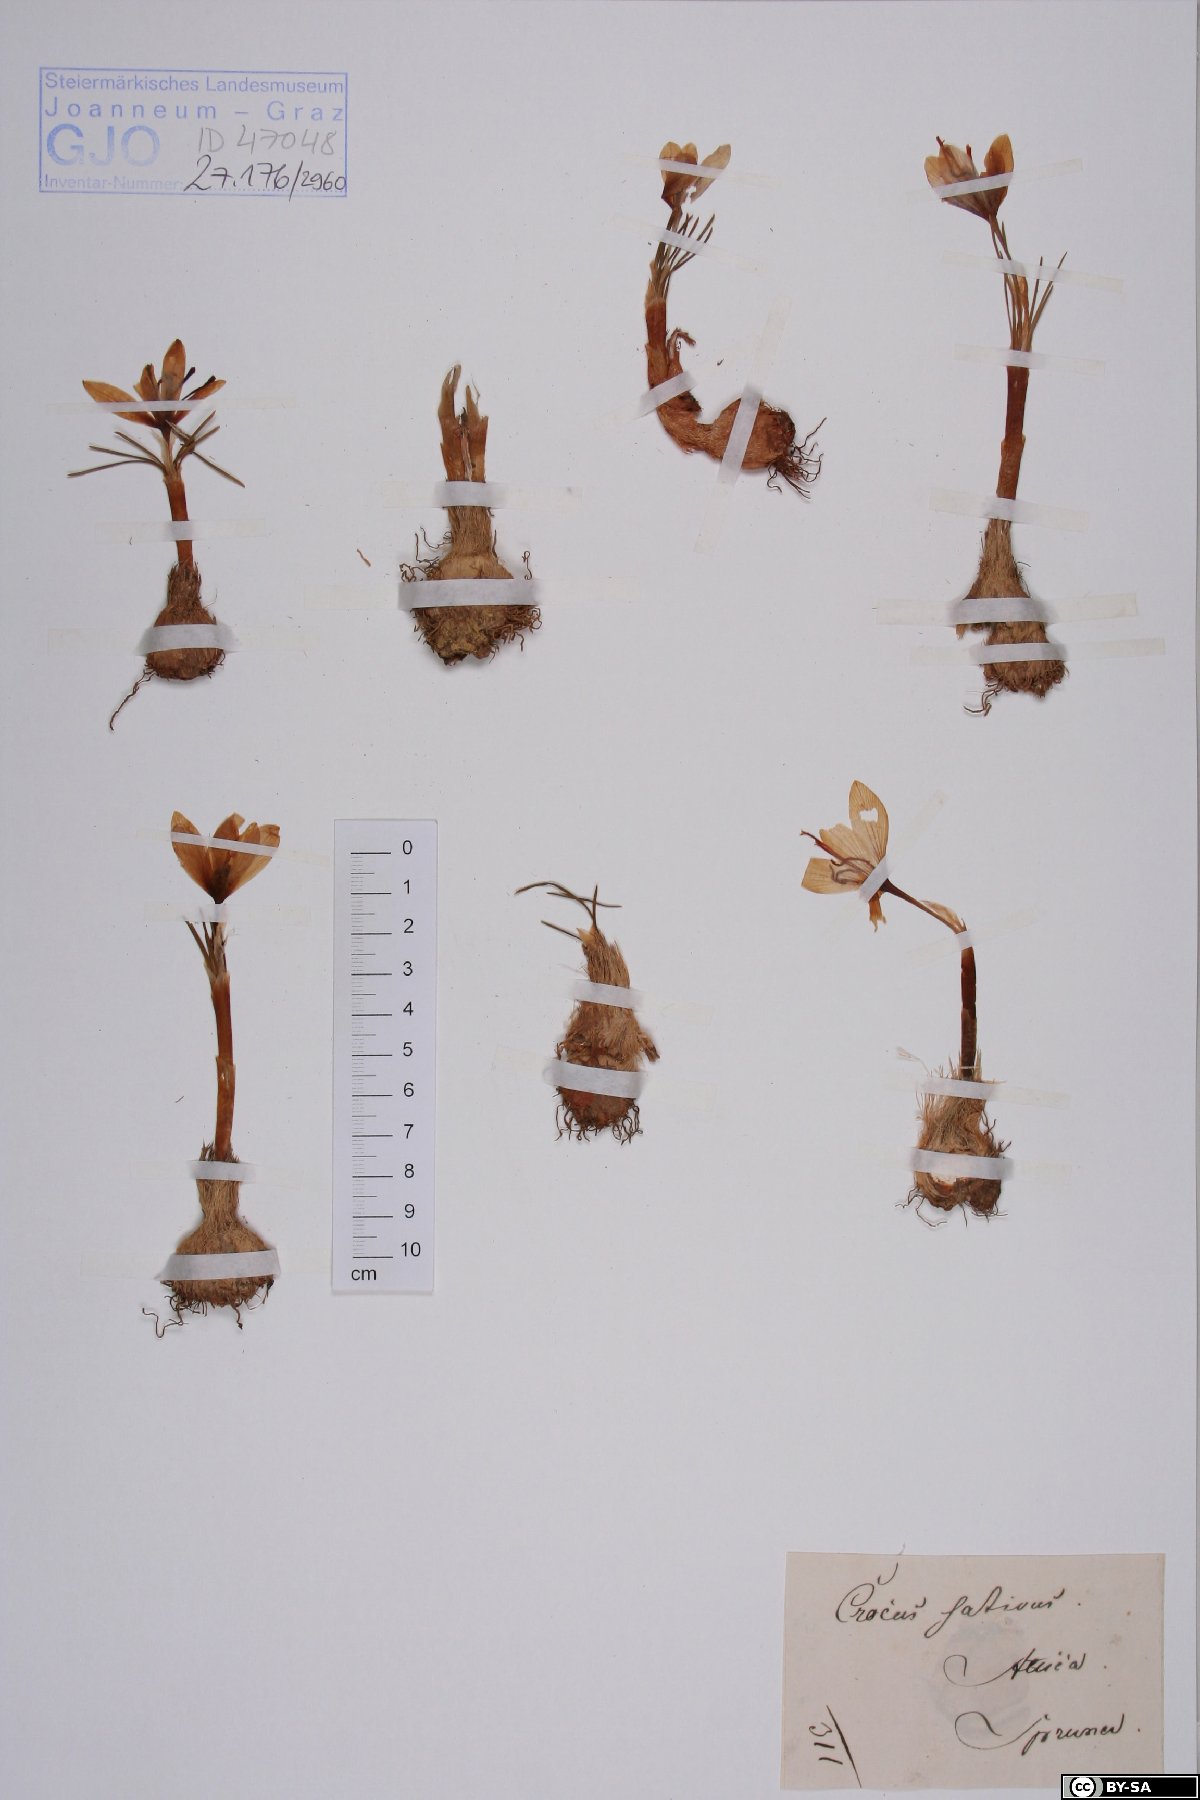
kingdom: Plantae
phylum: Tracheophyta
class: Liliopsida
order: Asparagales
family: Iridaceae
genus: Crocus
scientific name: Crocus sativus
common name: Saffron crocus
